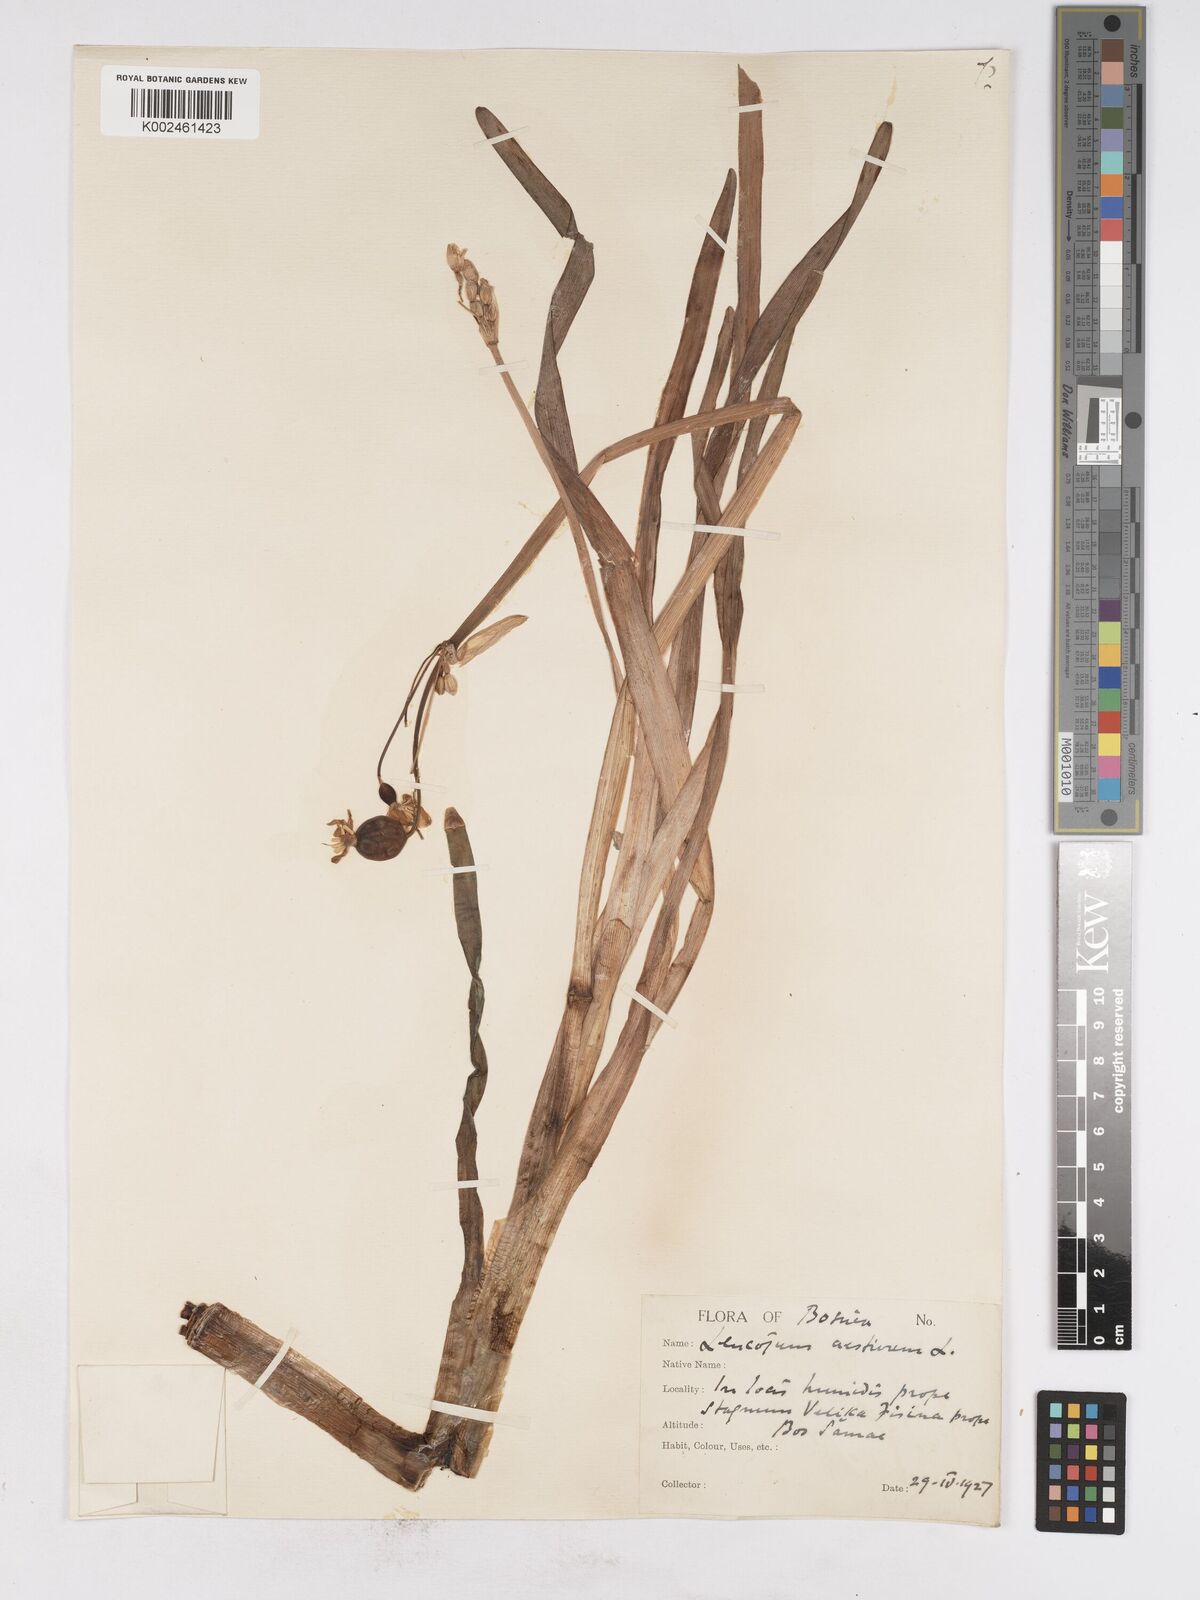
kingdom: Plantae
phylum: Tracheophyta
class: Liliopsida
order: Asparagales
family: Amaryllidaceae
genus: Leucojum
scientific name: Leucojum aestivum
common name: Summer snowflake
